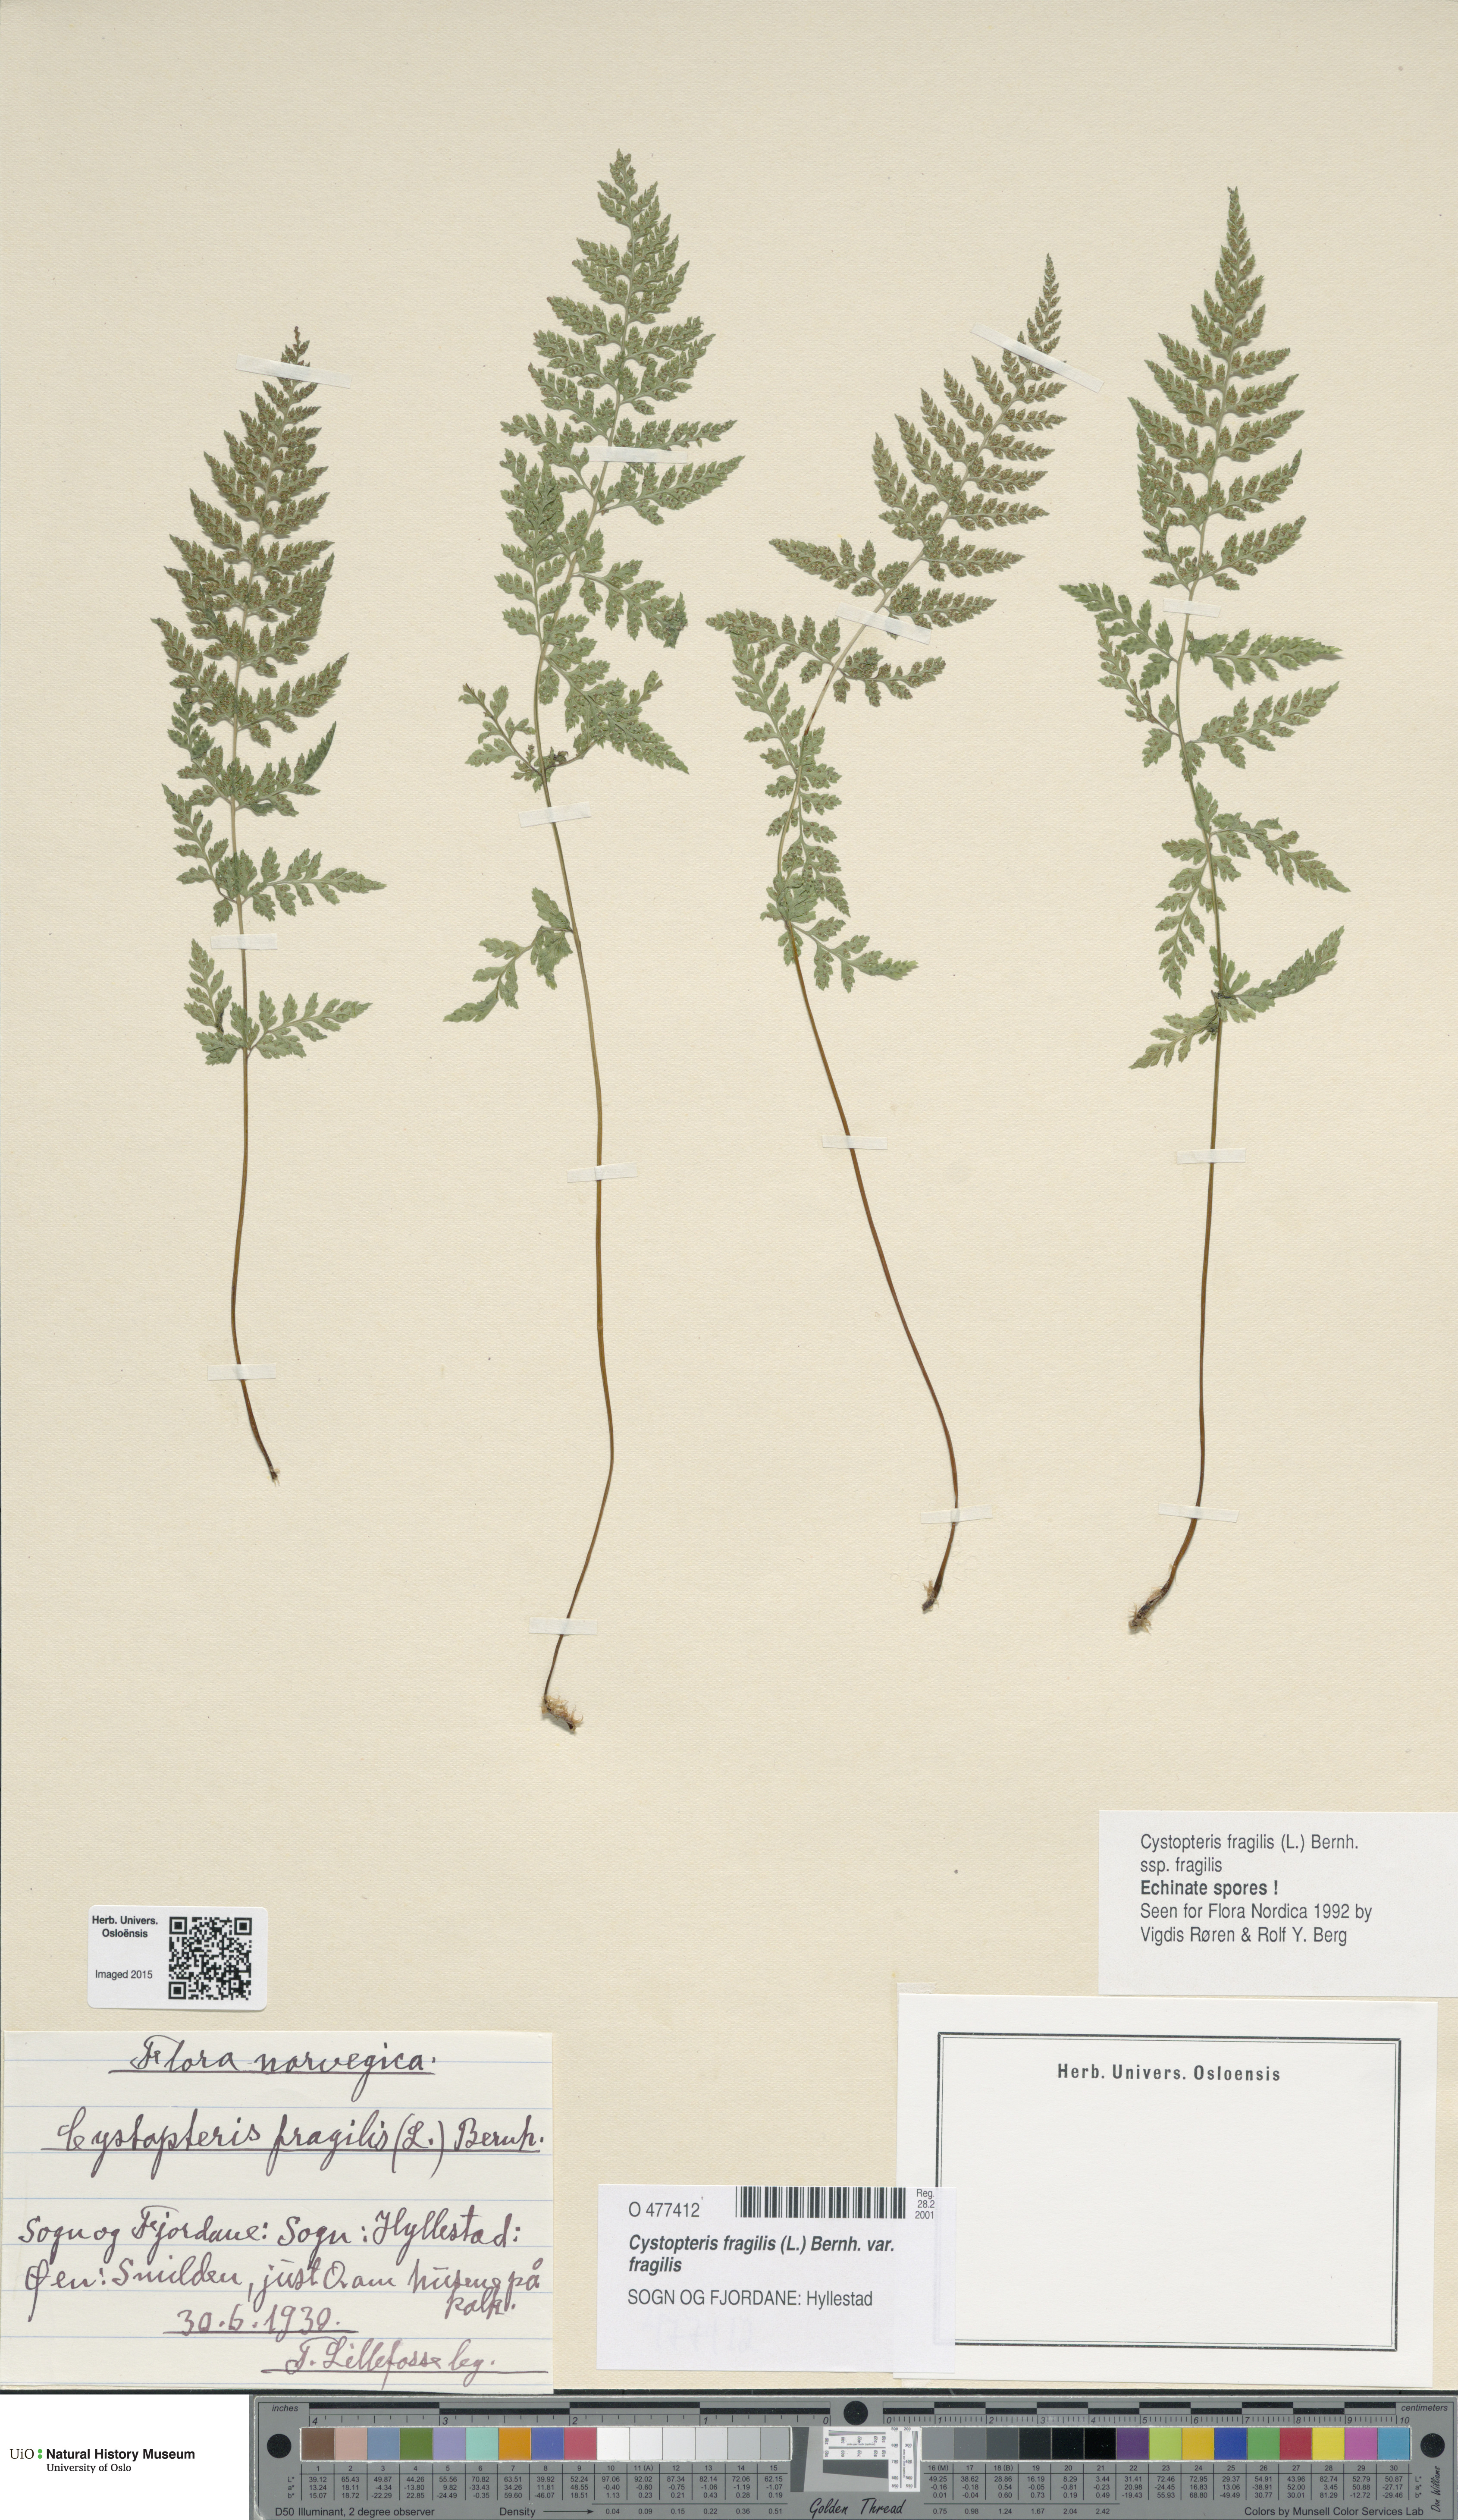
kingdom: Plantae
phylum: Tracheophyta
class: Polypodiopsida
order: Polypodiales
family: Cystopteridaceae
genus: Cystopteris
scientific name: Cystopteris fragilis
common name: Brittle bladder fern
